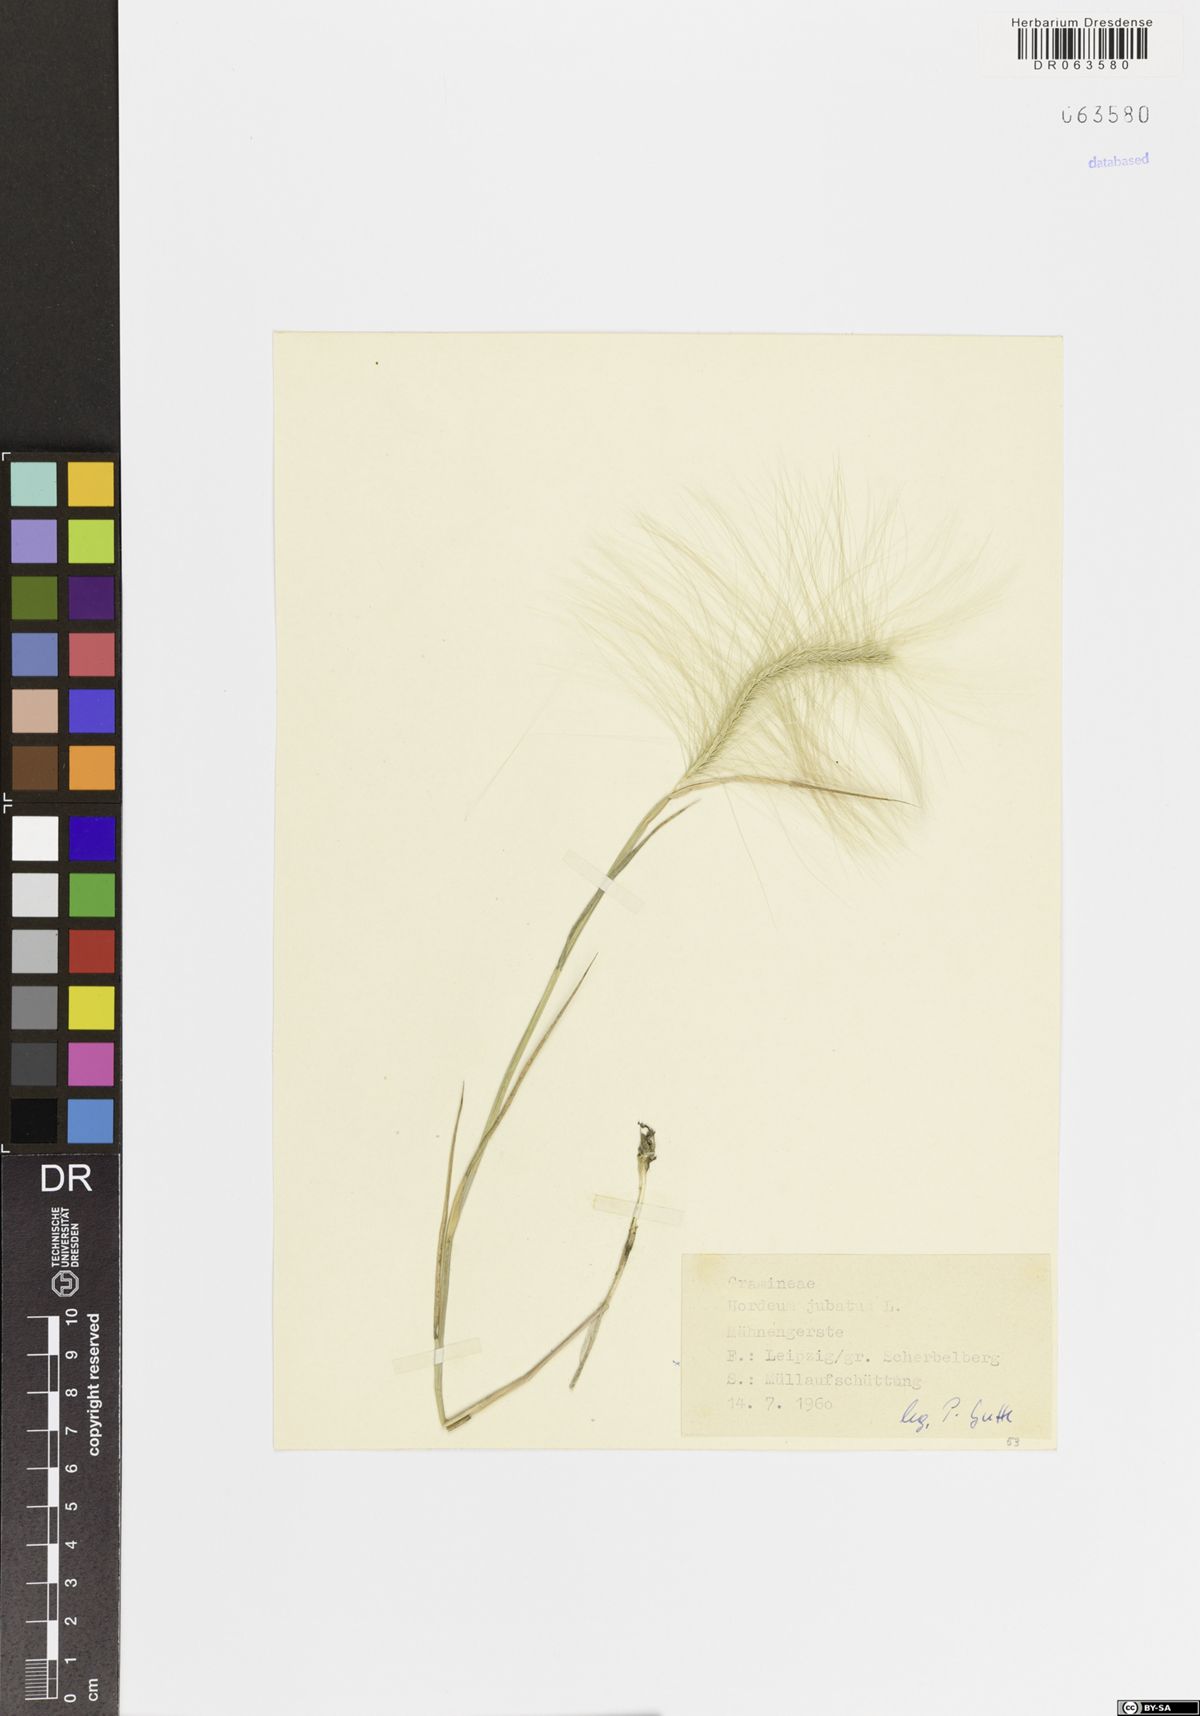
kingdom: Plantae
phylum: Tracheophyta
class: Liliopsida
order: Poales
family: Poaceae
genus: Hordeum
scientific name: Hordeum jubatum
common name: Foxtail barley
